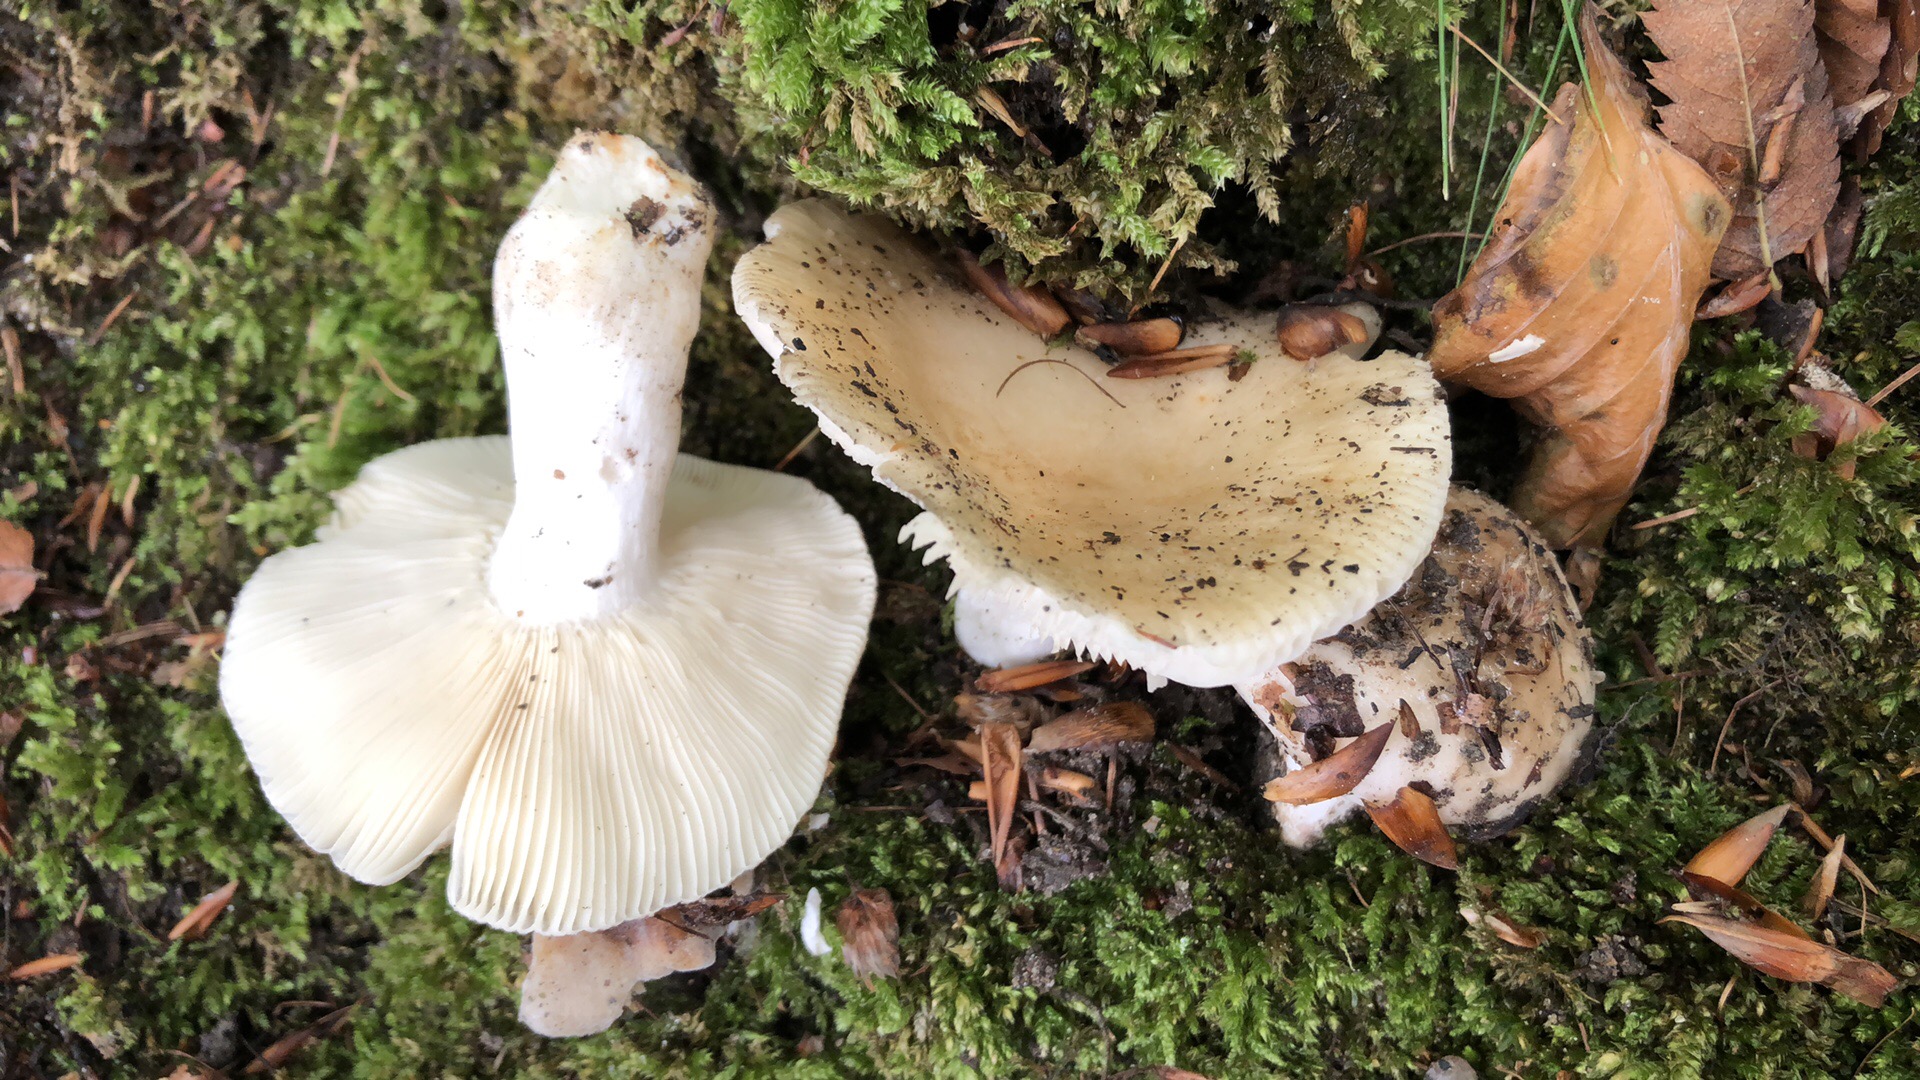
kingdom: Fungi
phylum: Basidiomycota
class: Agaricomycetes
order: Russulales
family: Russulaceae
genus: Russula
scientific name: Russula heterophylla
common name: gaffelbladet skørhat
